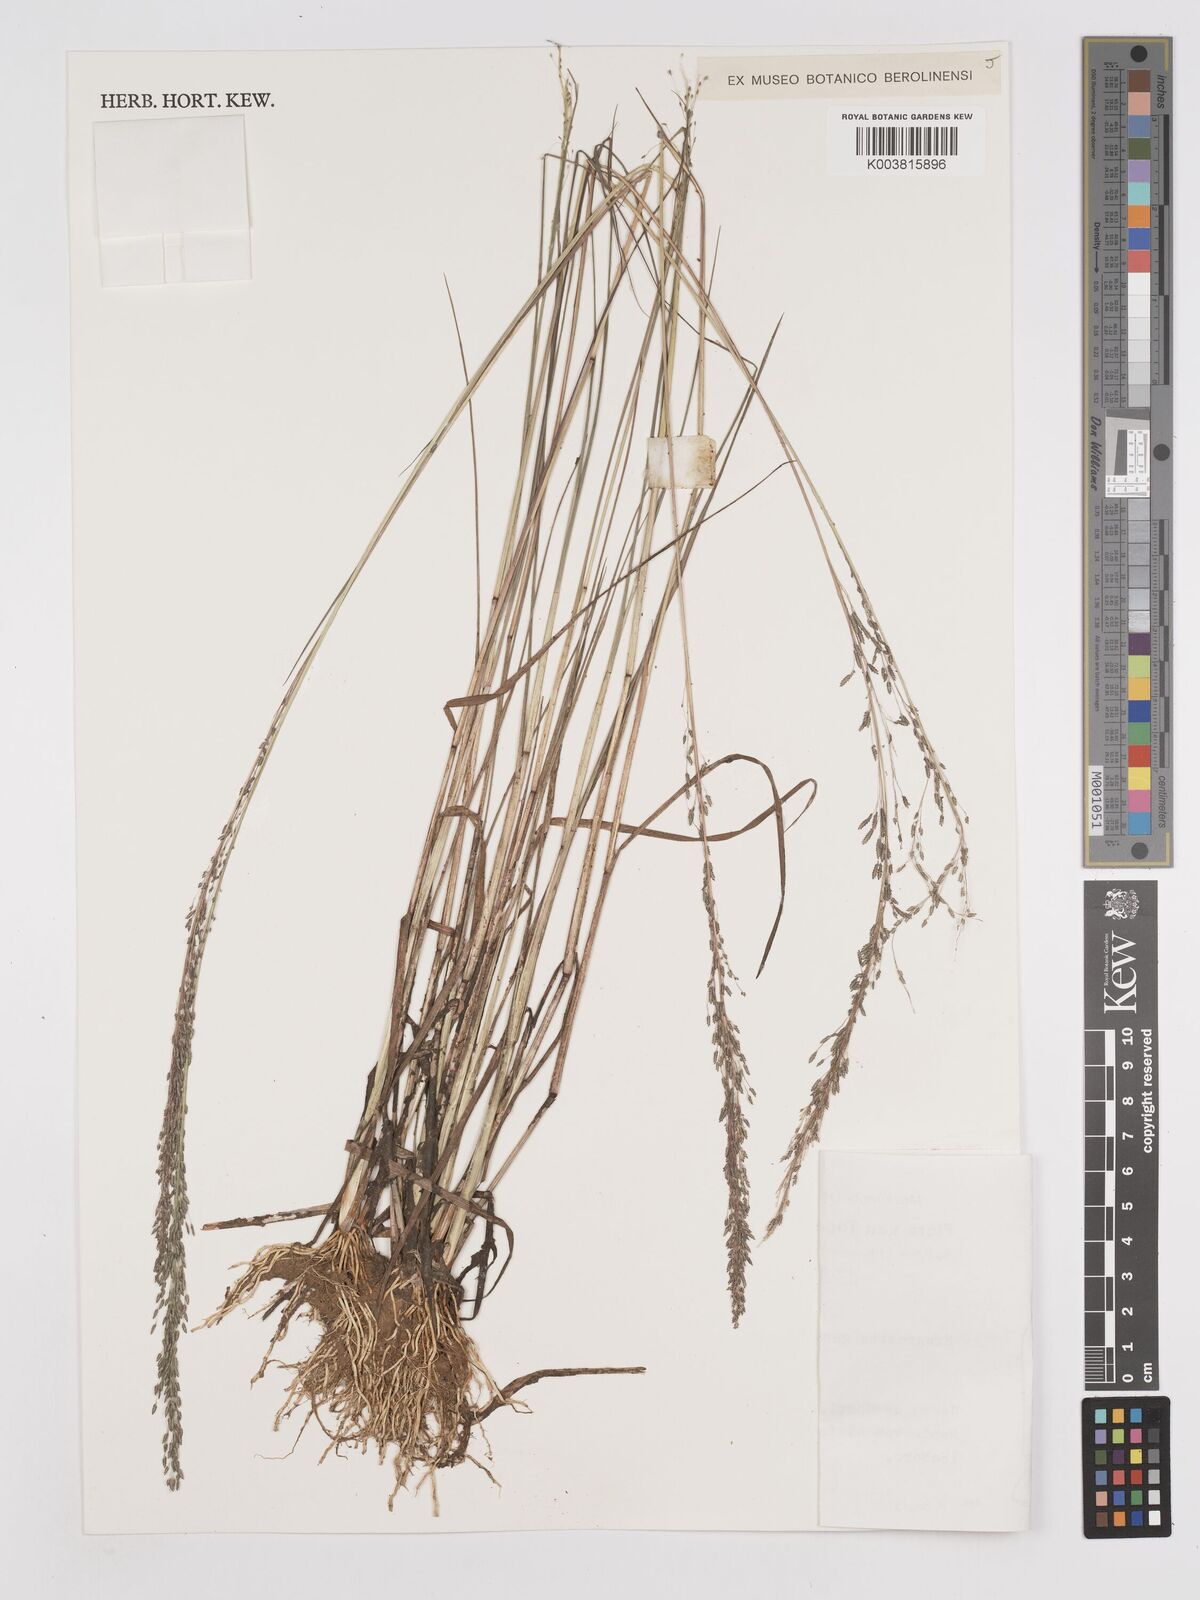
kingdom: Plantae
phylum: Tracheophyta
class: Liliopsida
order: Poales
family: Poaceae
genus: Eragrostis
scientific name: Eragrostis gangetica
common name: Slimflower lovegrass
